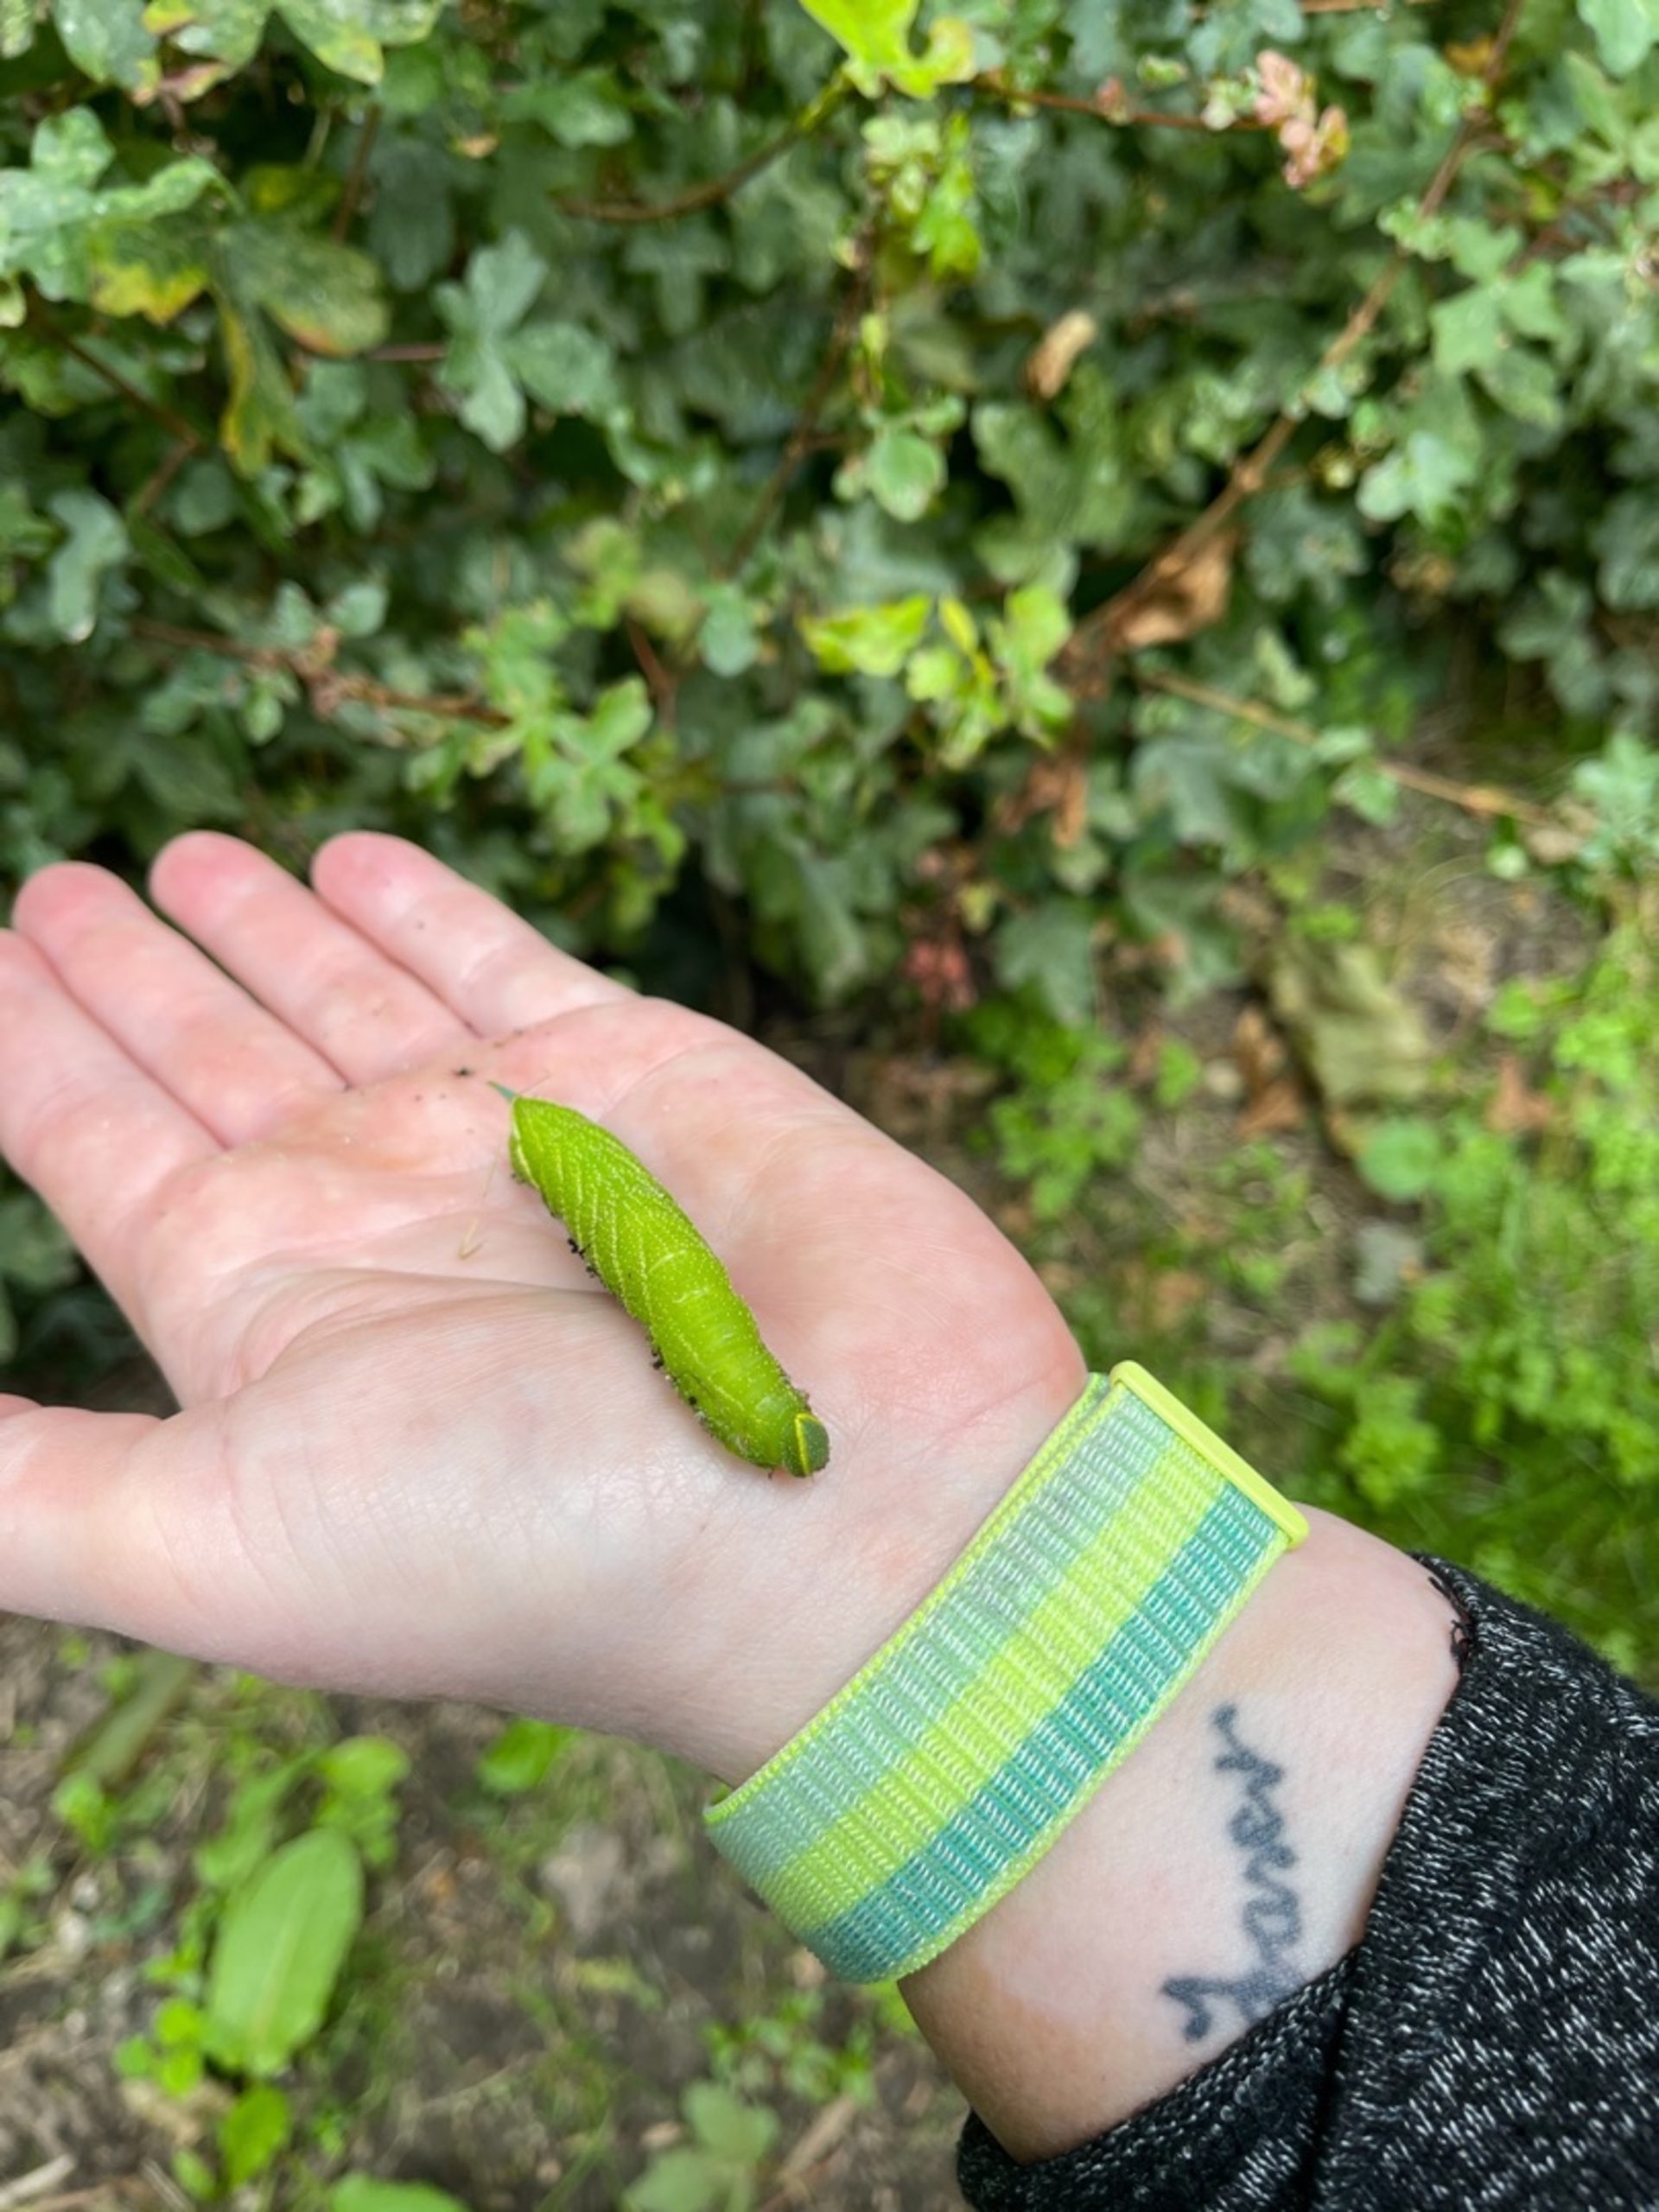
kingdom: Animalia
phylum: Arthropoda
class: Insecta
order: Lepidoptera
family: Sphingidae
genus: Smerinthus
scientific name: Smerinthus ocellata
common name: Aftenpåfugleøje
